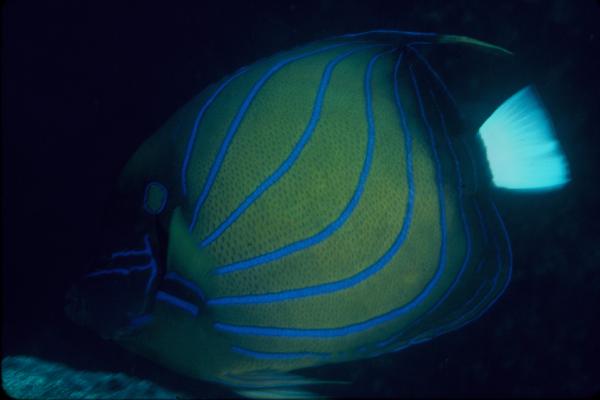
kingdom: Animalia
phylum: Chordata
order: Perciformes
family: Pomacanthidae
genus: Pomacanthus
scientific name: Pomacanthus annularis
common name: Bluering angelfish
